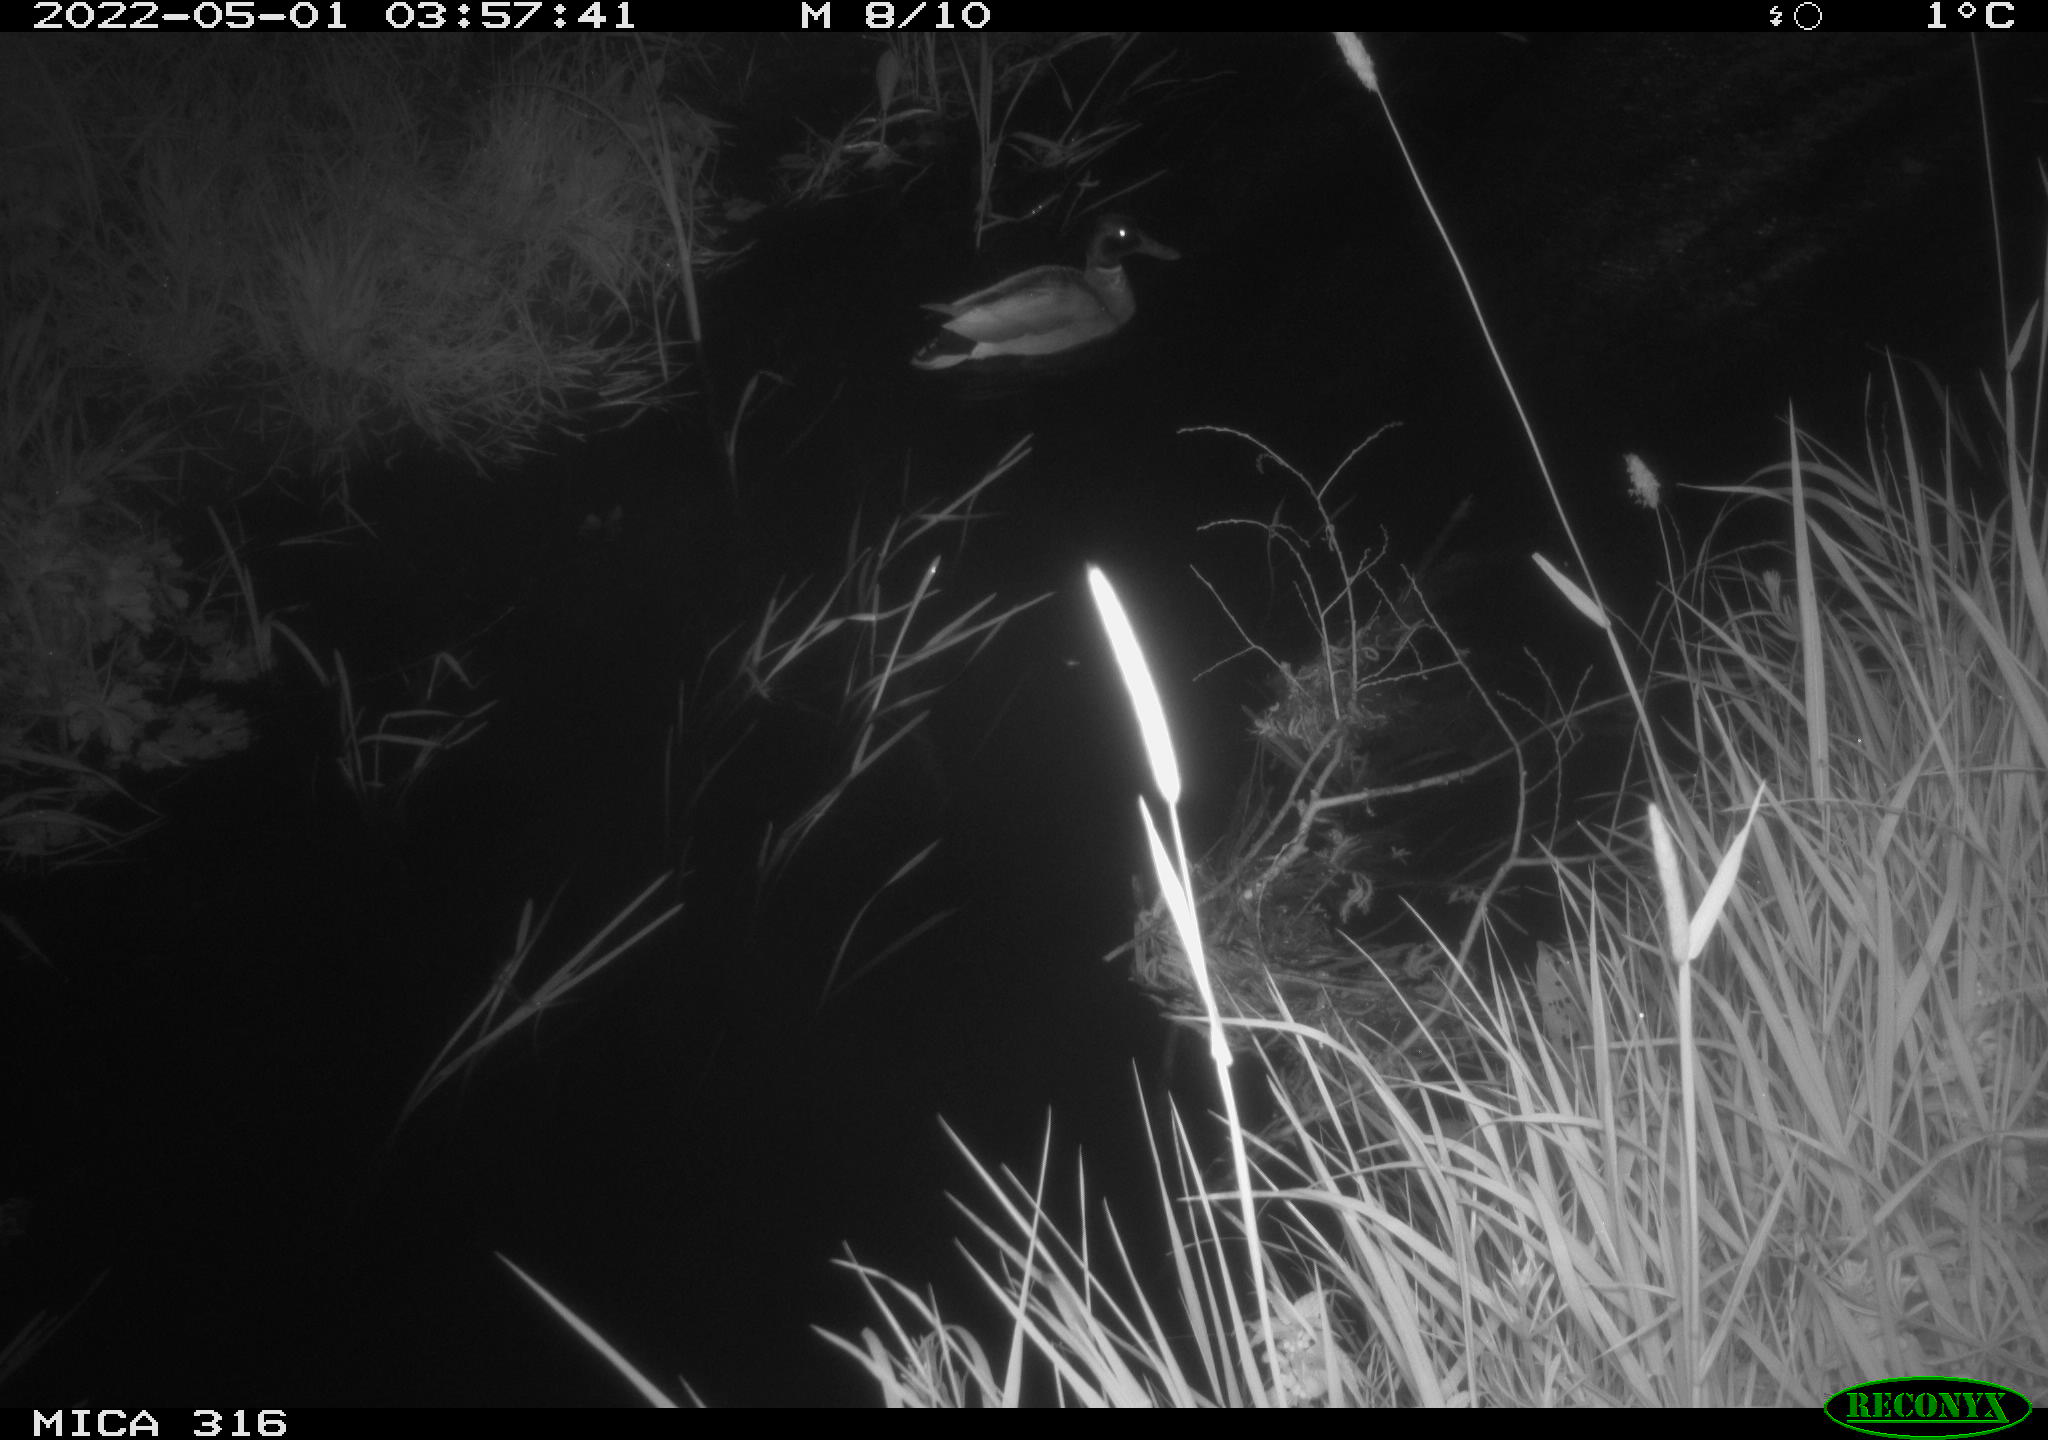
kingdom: Animalia
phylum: Chordata
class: Aves
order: Anseriformes
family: Anatidae
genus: Anas
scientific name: Anas platyrhynchos
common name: Mallard
